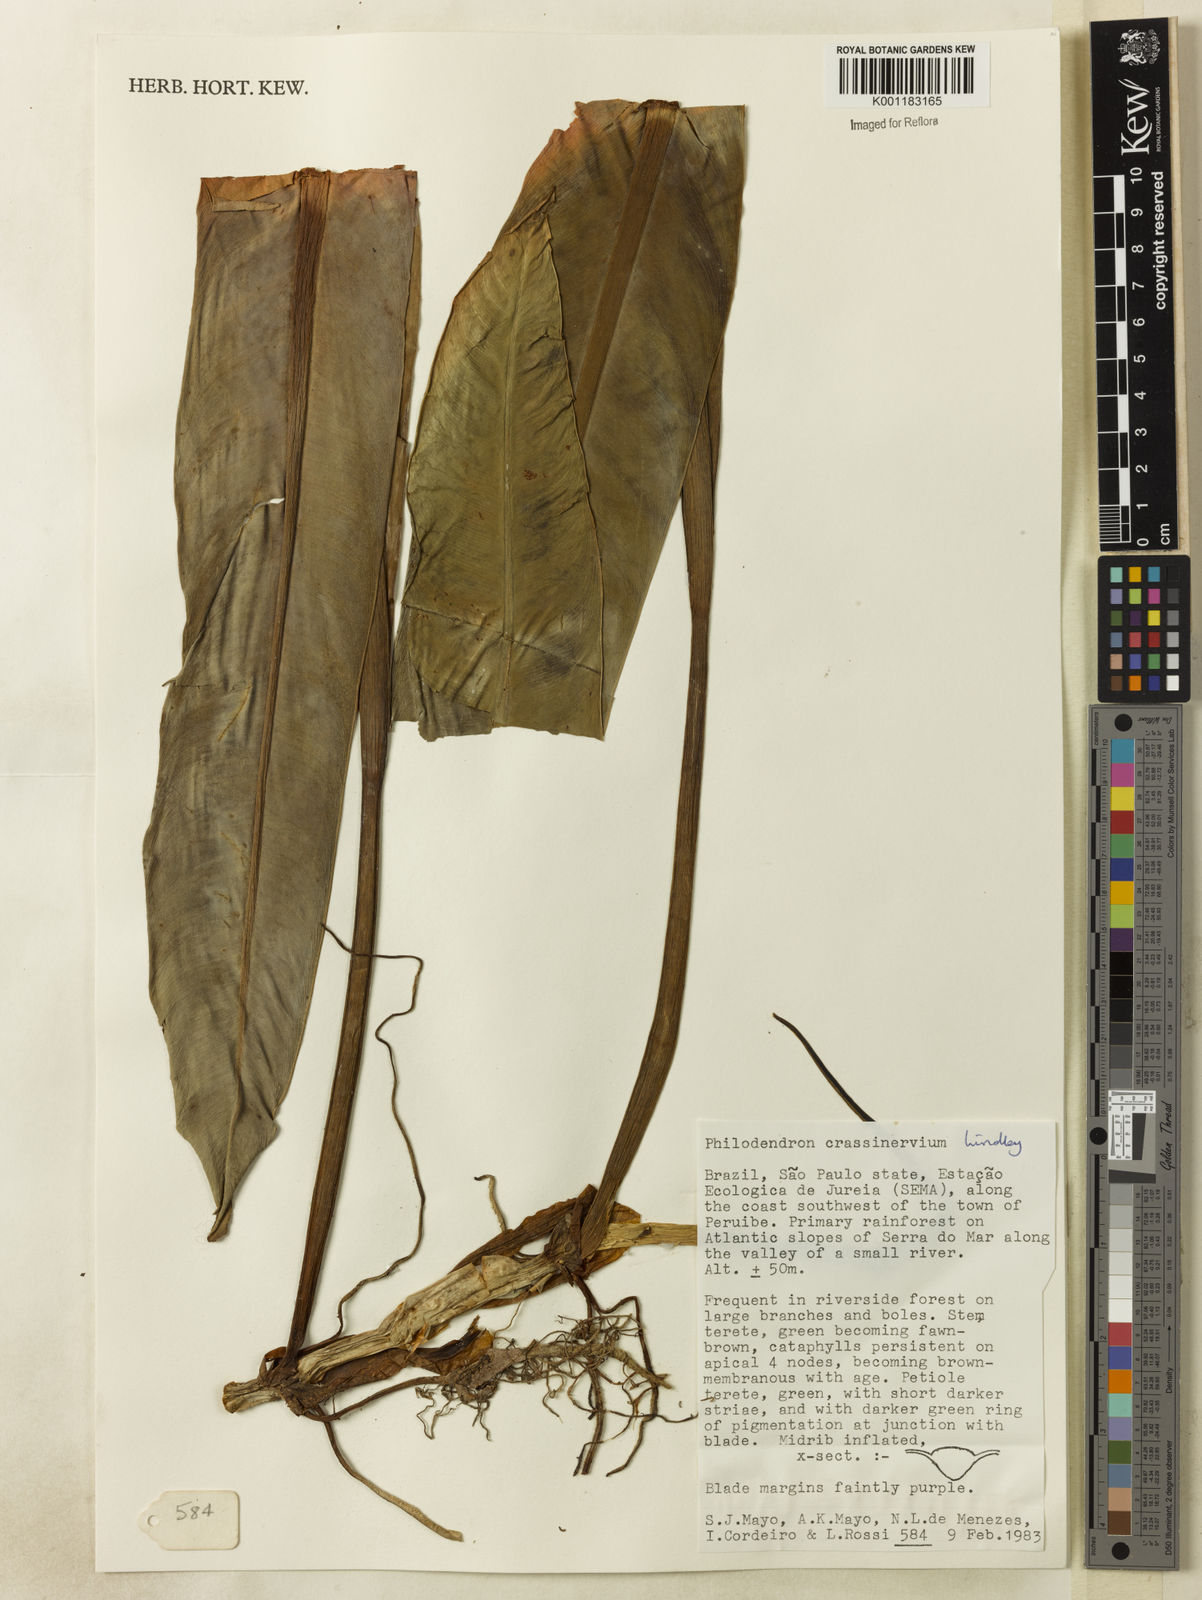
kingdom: Plantae
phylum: Tracheophyta
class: Liliopsida
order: Alismatales
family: Araceae
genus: Philodendron
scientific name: Philodendron crassinervium
